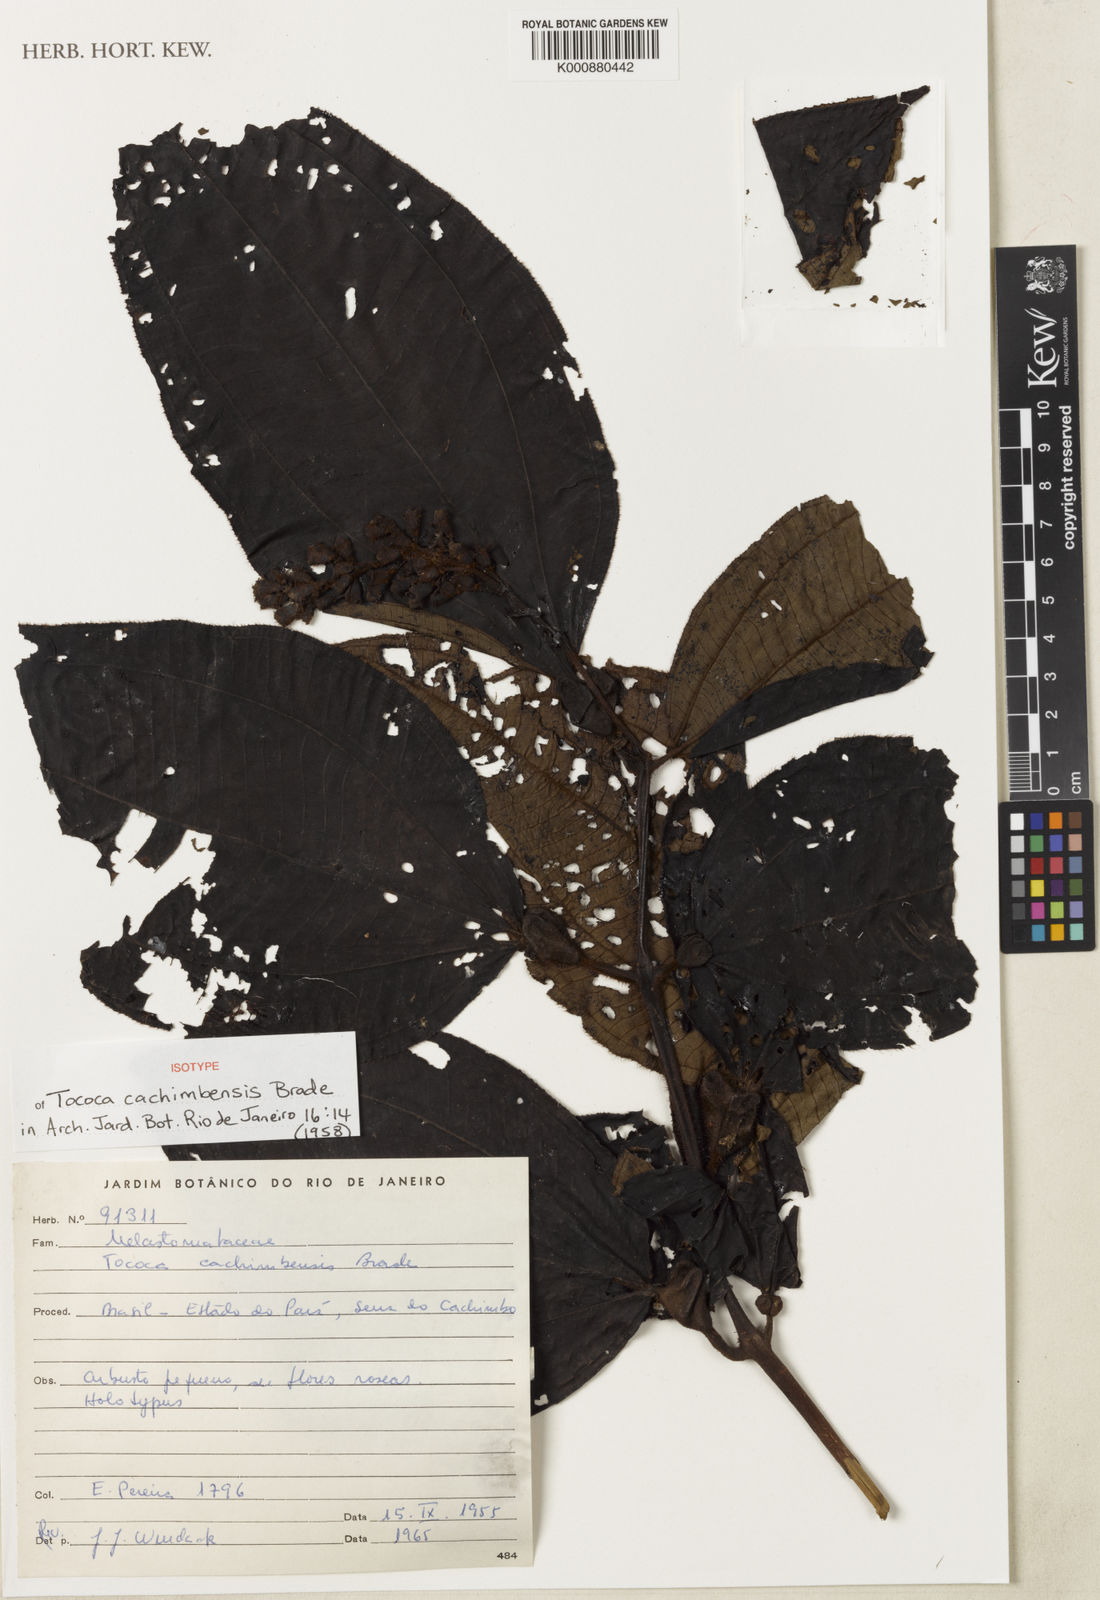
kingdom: Plantae
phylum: Tracheophyta
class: Magnoliopsida
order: Myrtales
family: Melastomataceae
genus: Miconia
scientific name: Miconia tococa
